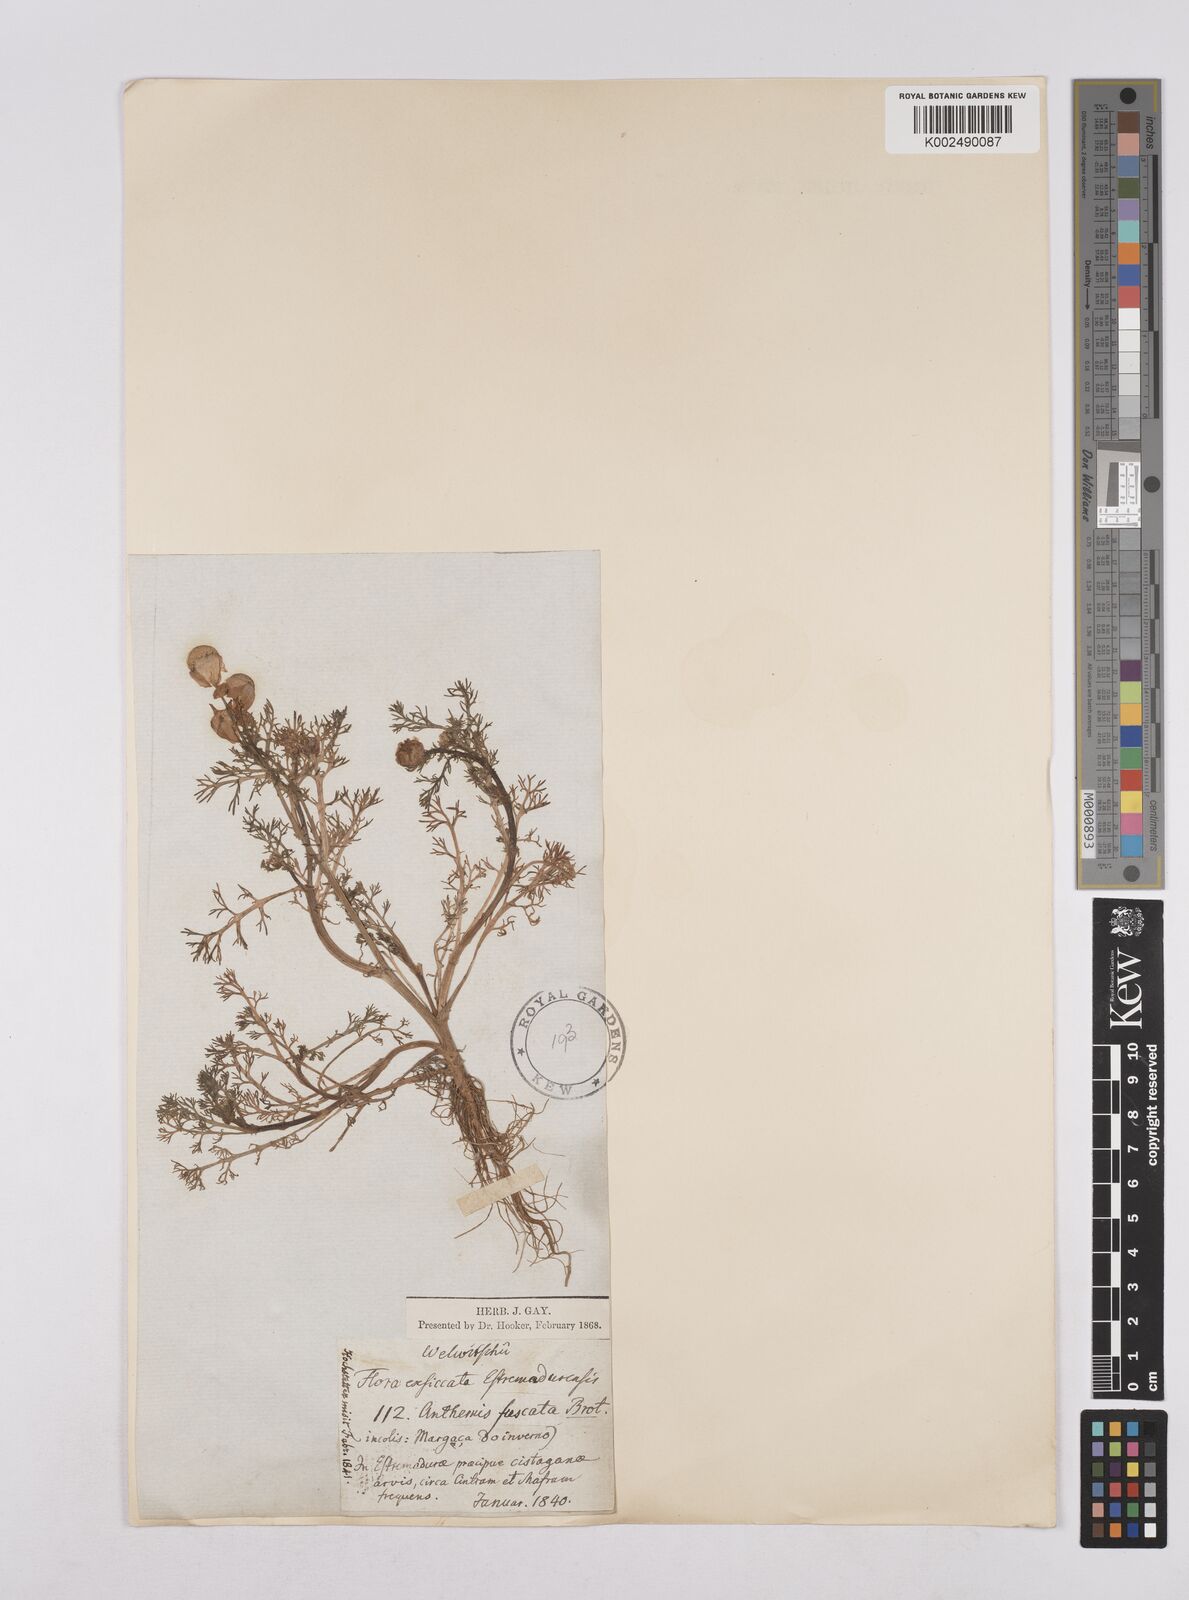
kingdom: Plantae
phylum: Tracheophyta
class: Magnoliopsida
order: Asterales
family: Asteraceae
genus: Chamaemelum
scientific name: Chamaemelum fuscatum
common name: Chamomile
